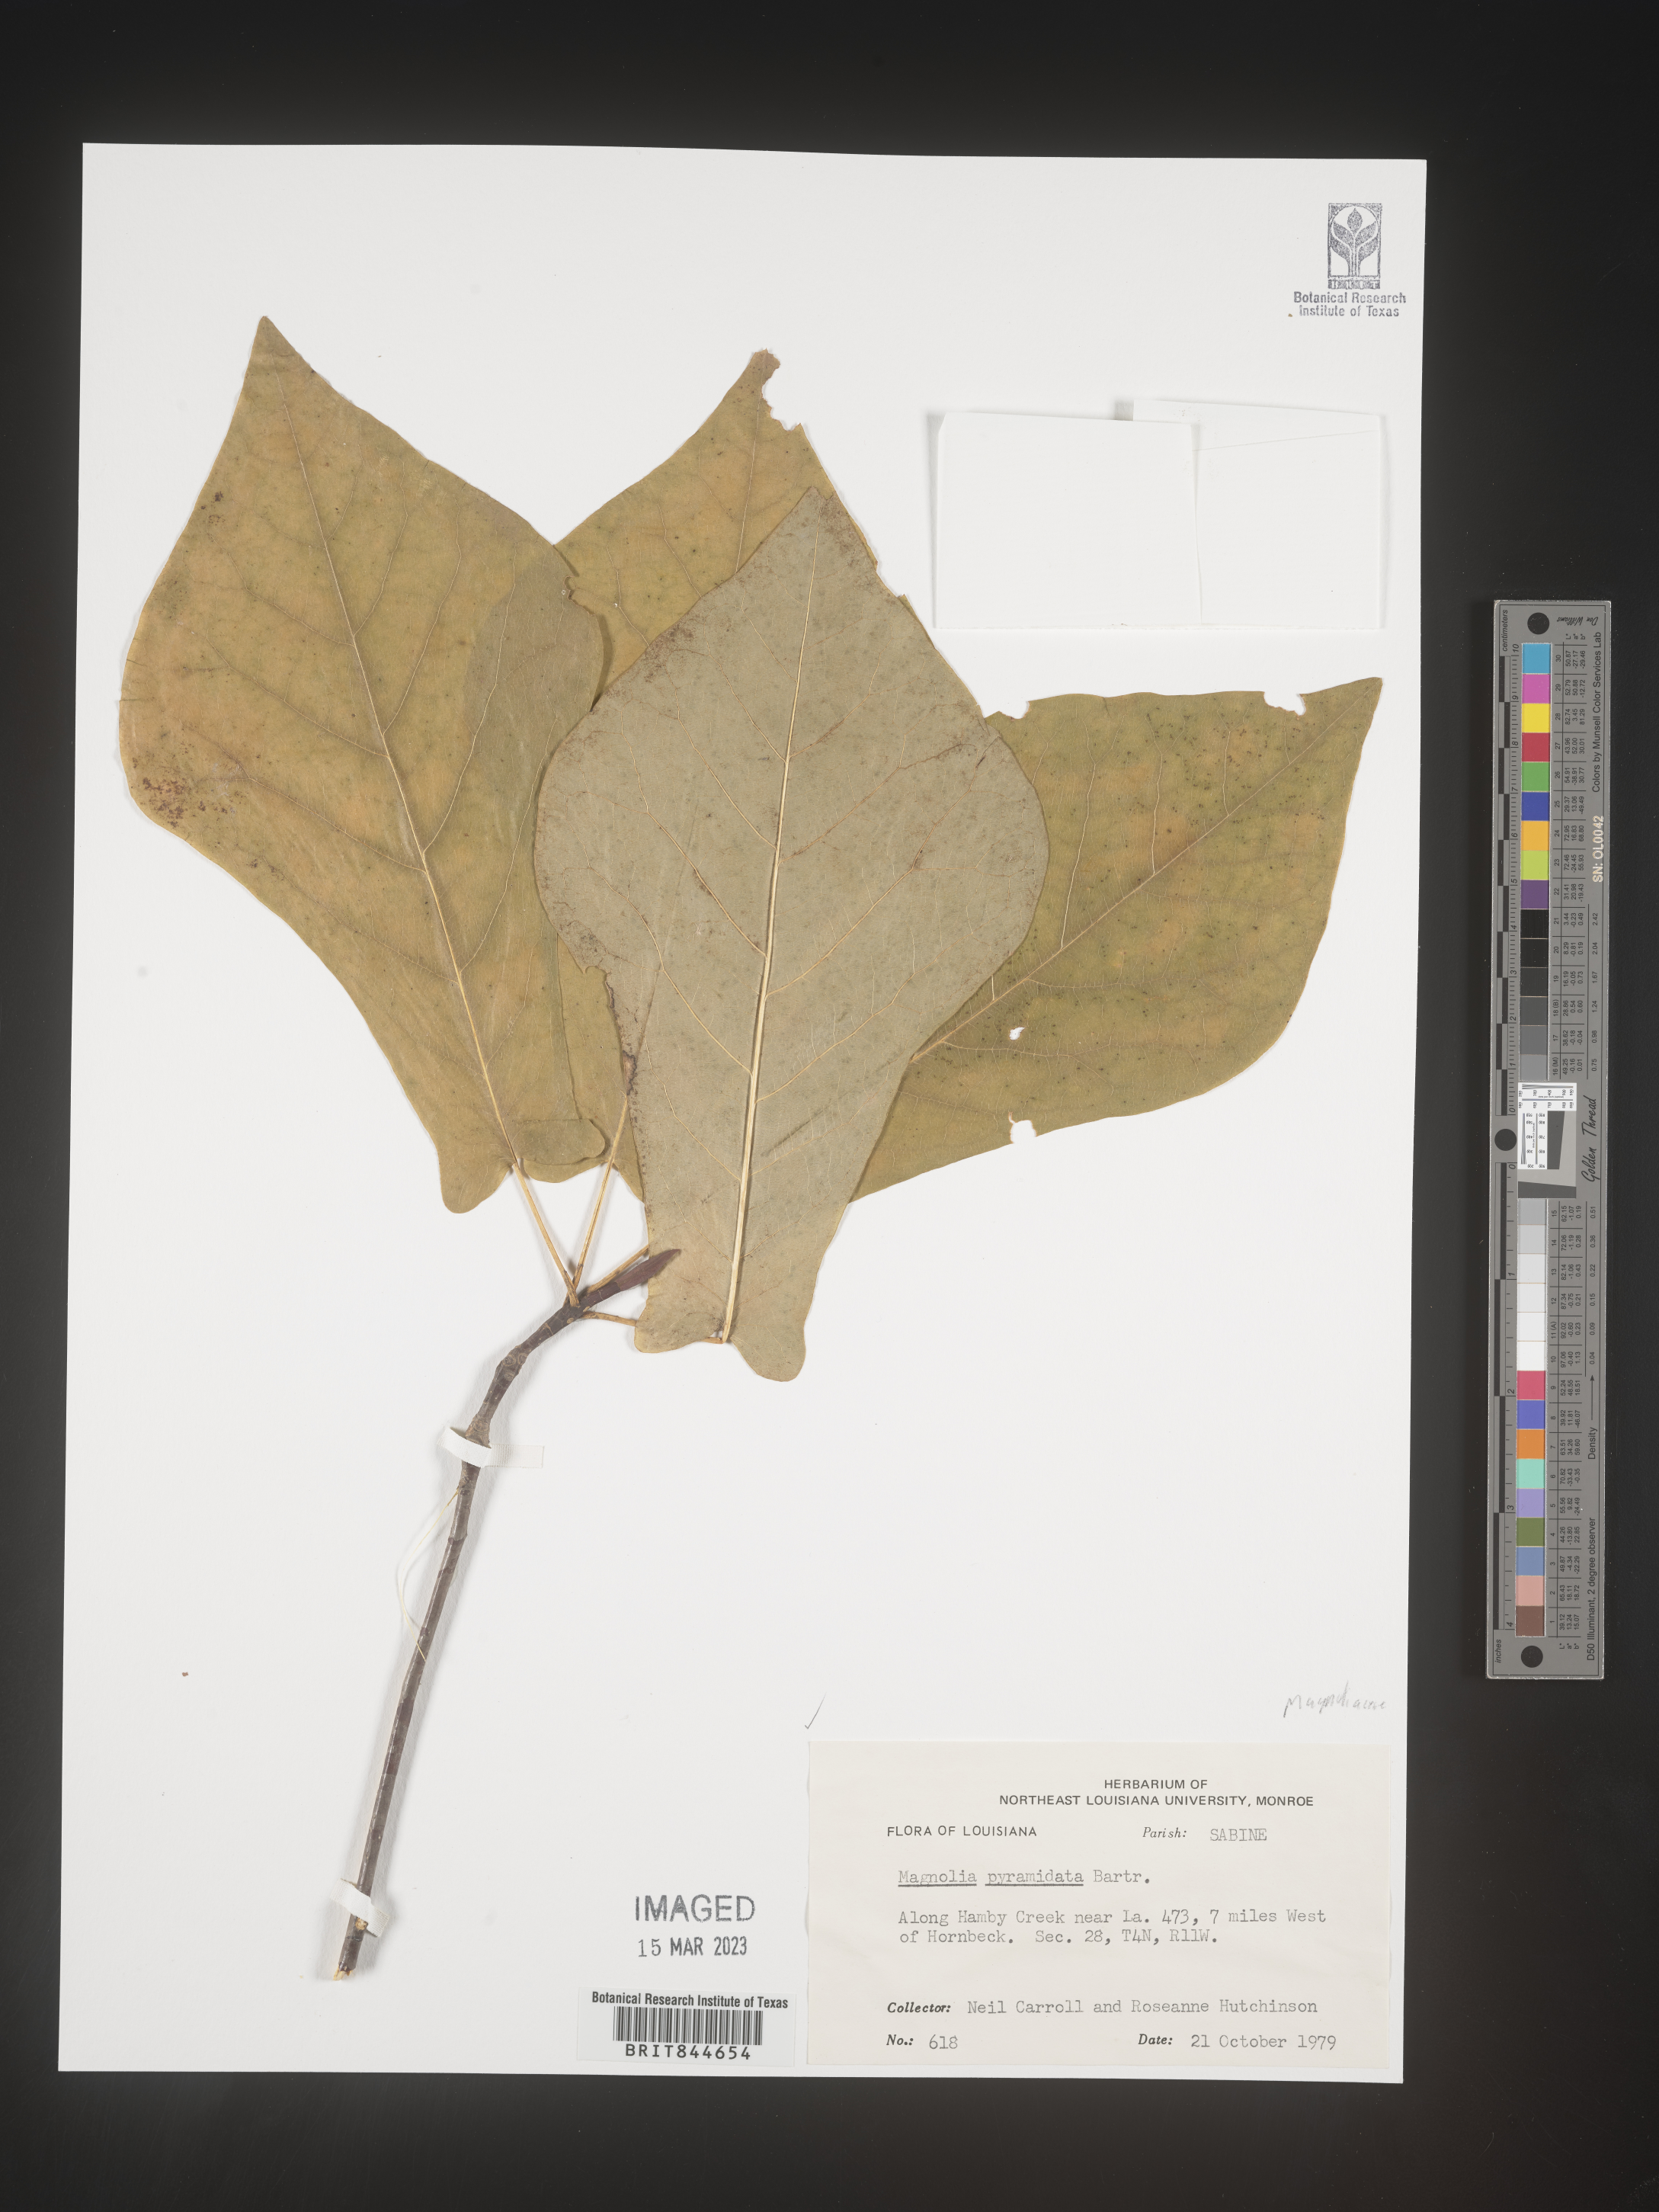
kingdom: Plantae
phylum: Tracheophyta
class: Magnoliopsida
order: Magnoliales
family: Magnoliaceae
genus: Magnolia
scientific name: Magnolia fraseri
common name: Fraser's magnolia
